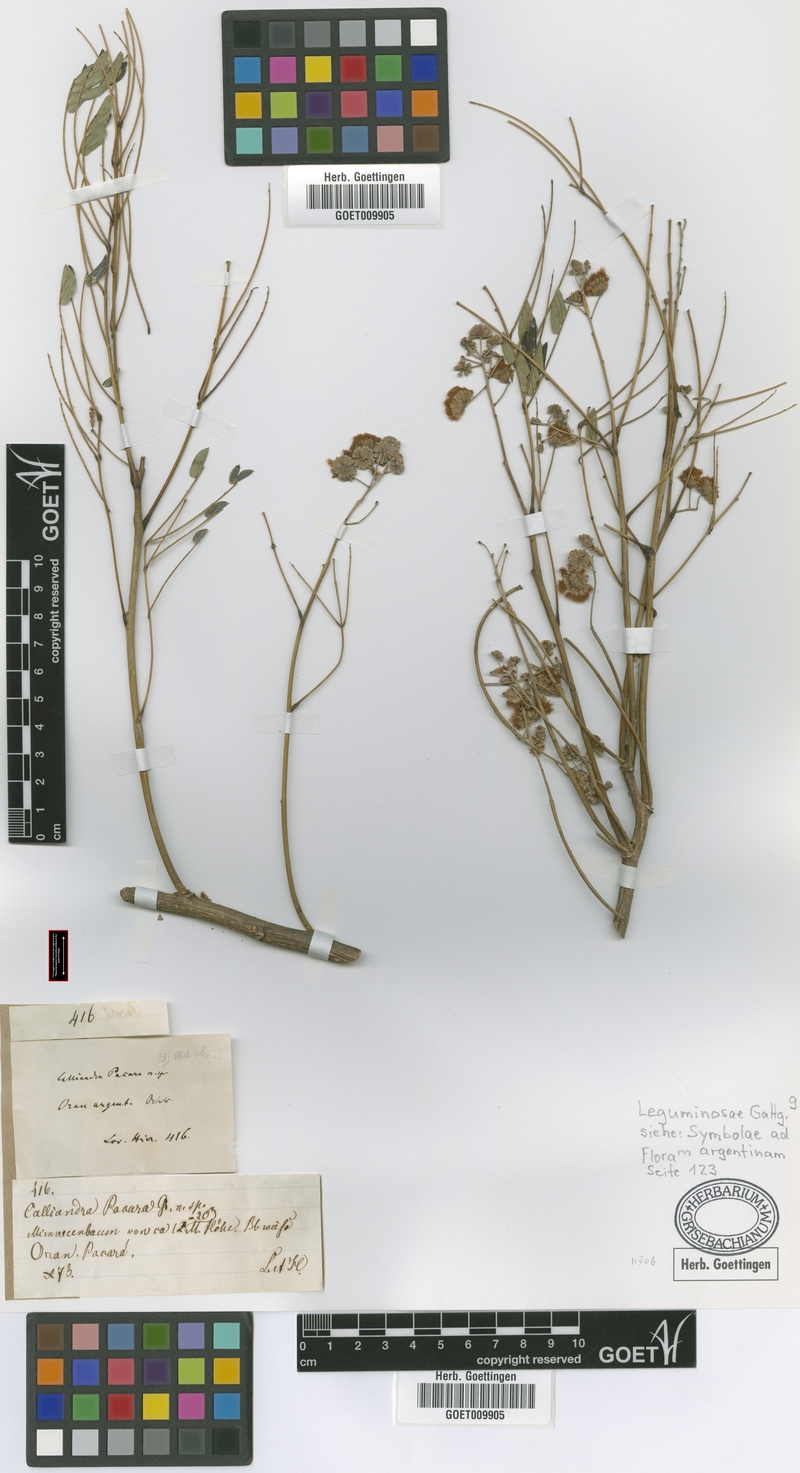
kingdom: Plantae
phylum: Tracheophyta
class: Magnoliopsida
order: Fabales
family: Fabaceae
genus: Enterolobium
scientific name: Enterolobium contortisiliquum
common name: Pacara earpod tree
